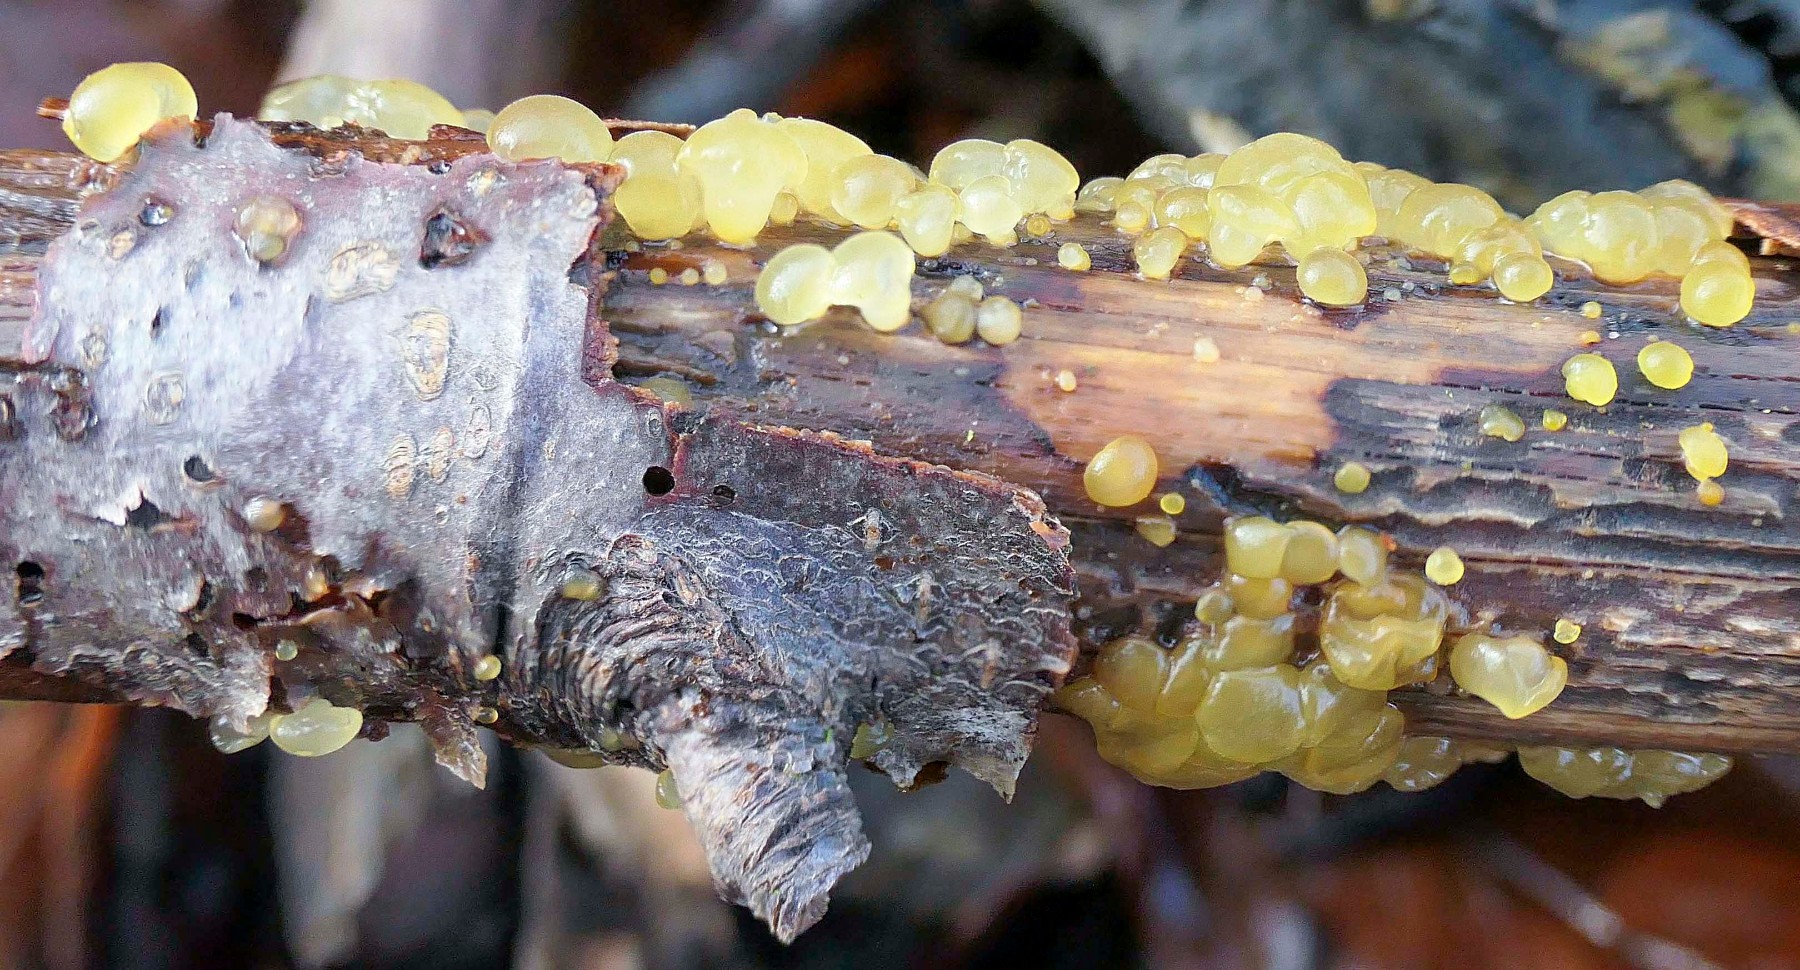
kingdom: Fungi
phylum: Basidiomycota
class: Dacrymycetes
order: Dacrymycetales
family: Dacrymycetaceae
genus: Dacrymyces
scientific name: Dacrymyces capitatus
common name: stilket tåresvamp
